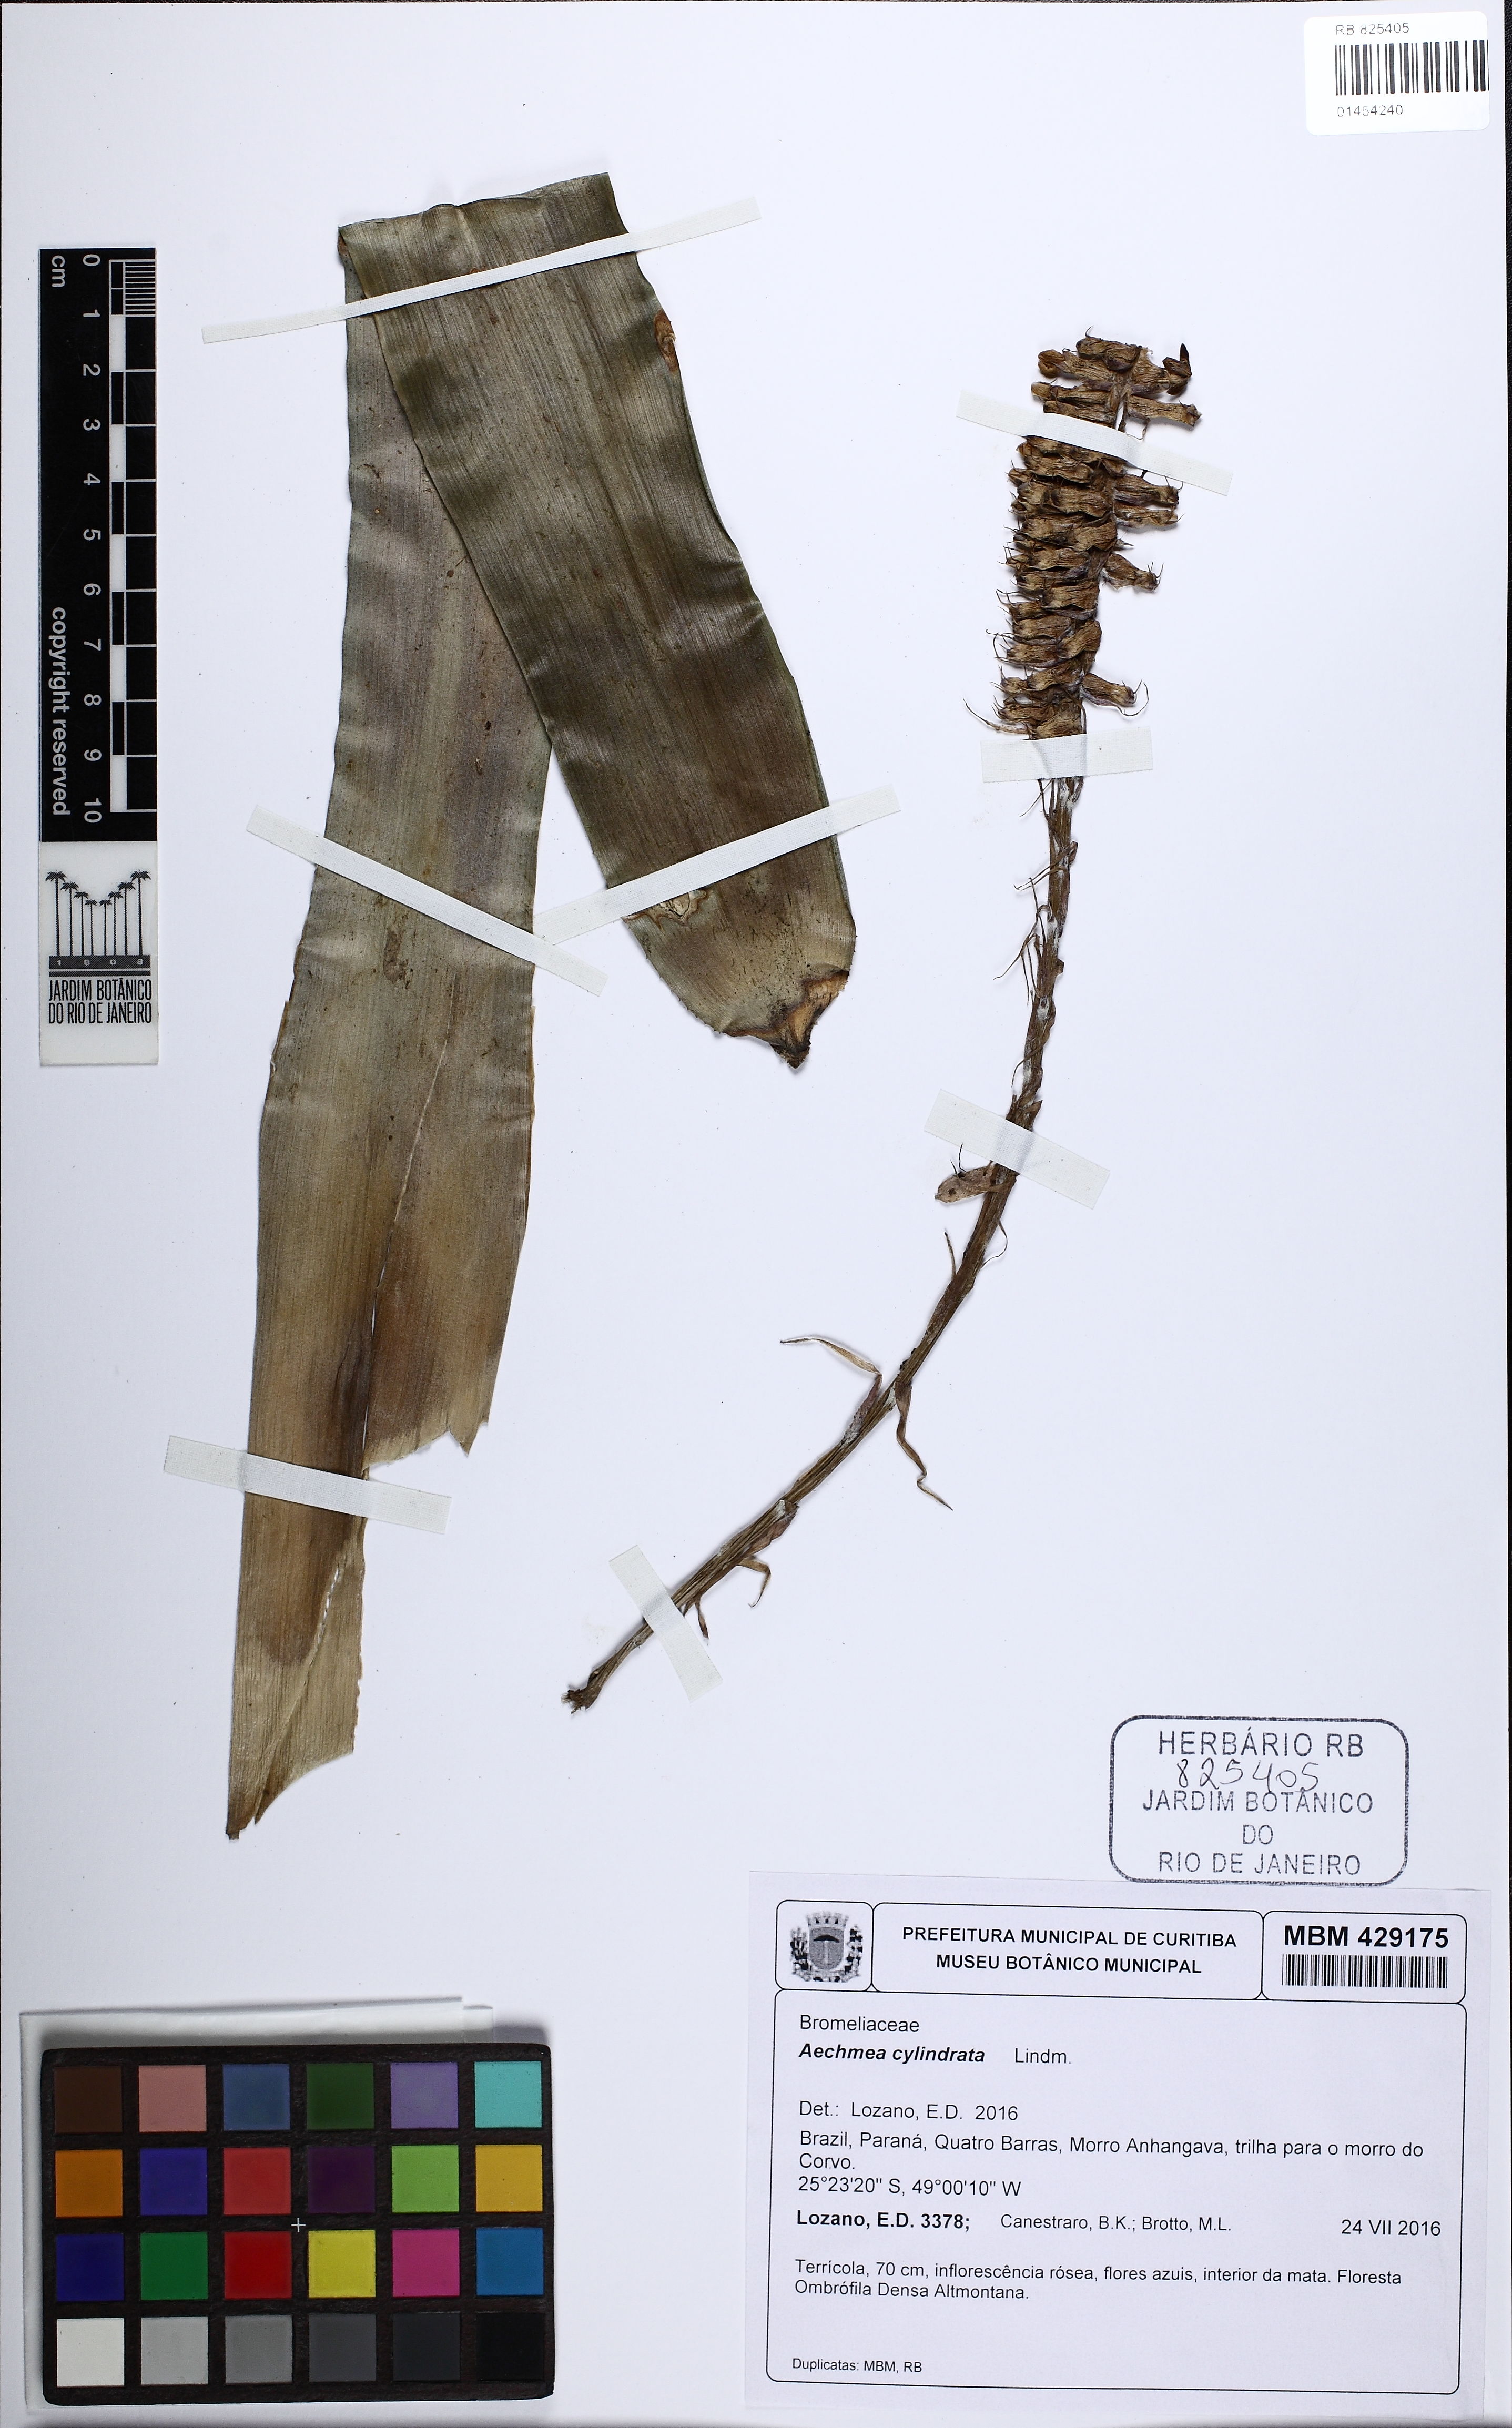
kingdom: Plantae
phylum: Tracheophyta
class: Liliopsida
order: Poales
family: Bromeliaceae
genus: Aechmea
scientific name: Aechmea cylindrata
